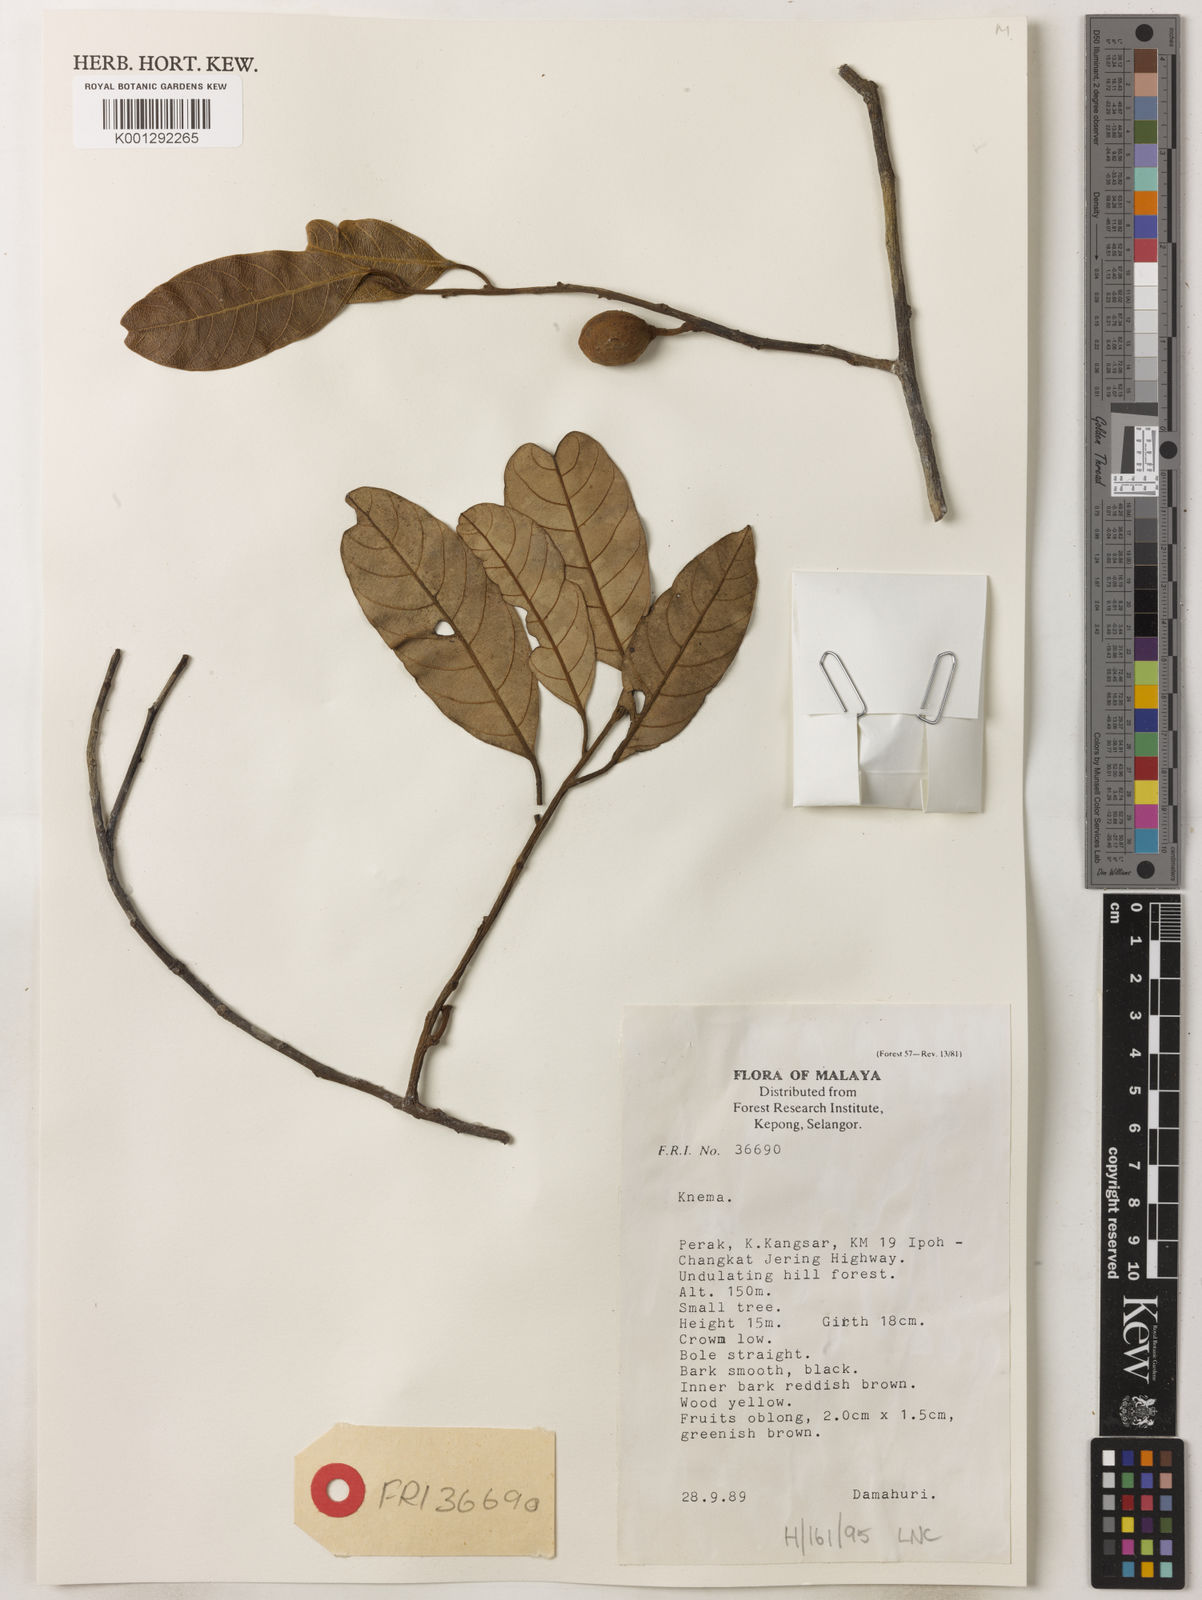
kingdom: Plantae
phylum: Tracheophyta
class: Magnoliopsida
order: Magnoliales
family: Myristicaceae
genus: Knema
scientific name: Knema
